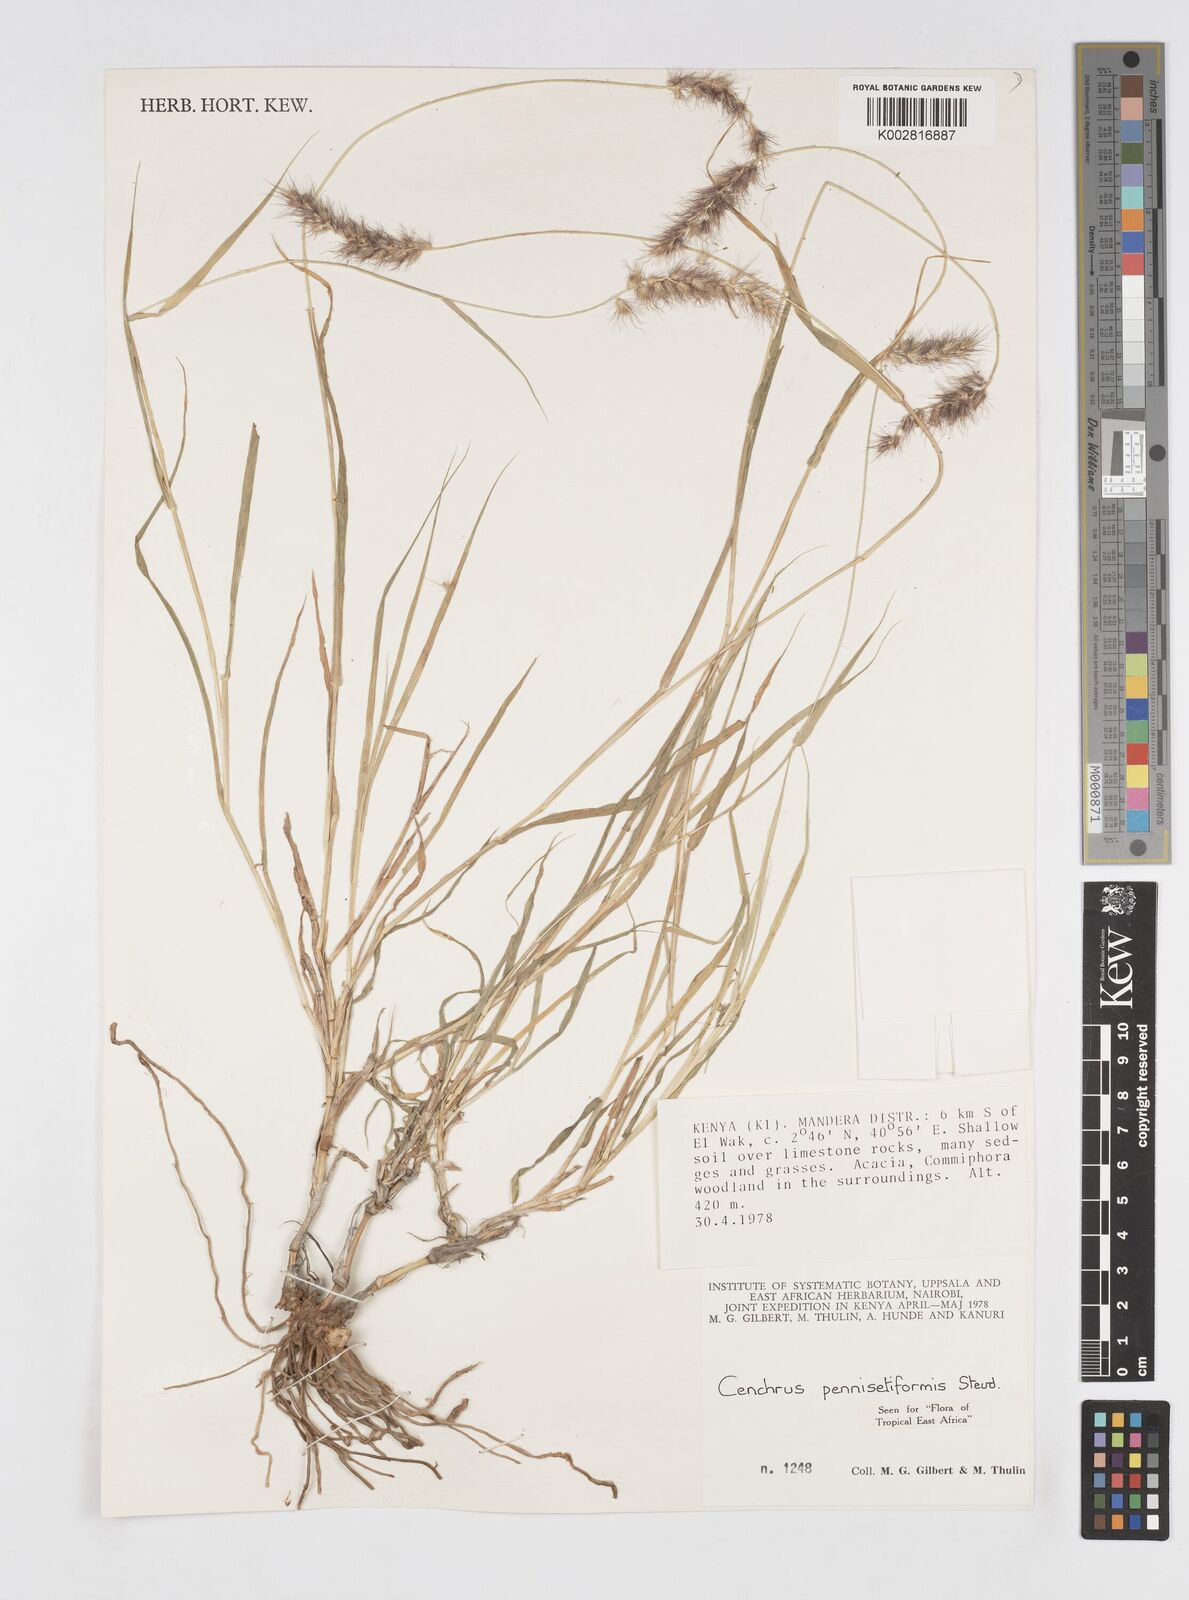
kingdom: Plantae
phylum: Tracheophyta
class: Liliopsida
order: Poales
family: Poaceae
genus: Cenchrus
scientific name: Cenchrus pennisetiformis
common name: Cloncurry
